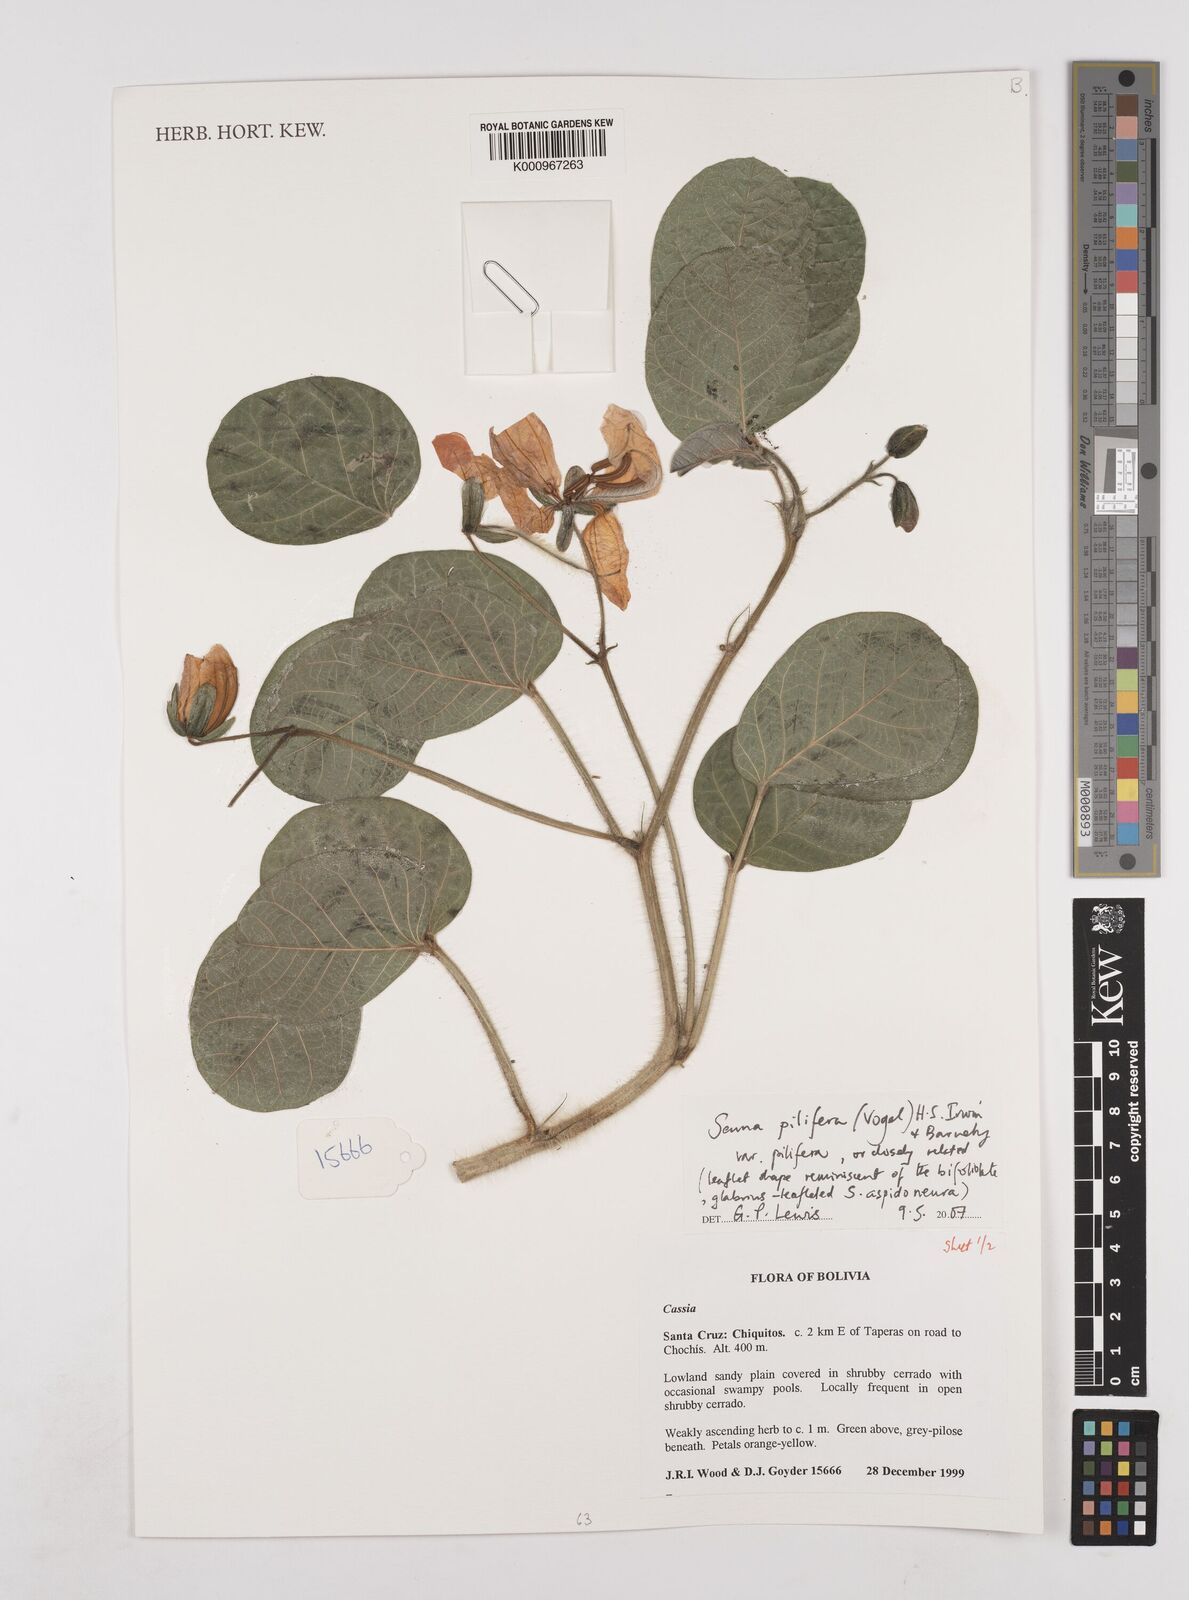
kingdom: Plantae
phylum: Tracheophyta
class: Magnoliopsida
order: Fabales
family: Fabaceae
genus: Senna
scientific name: Senna pilifera
